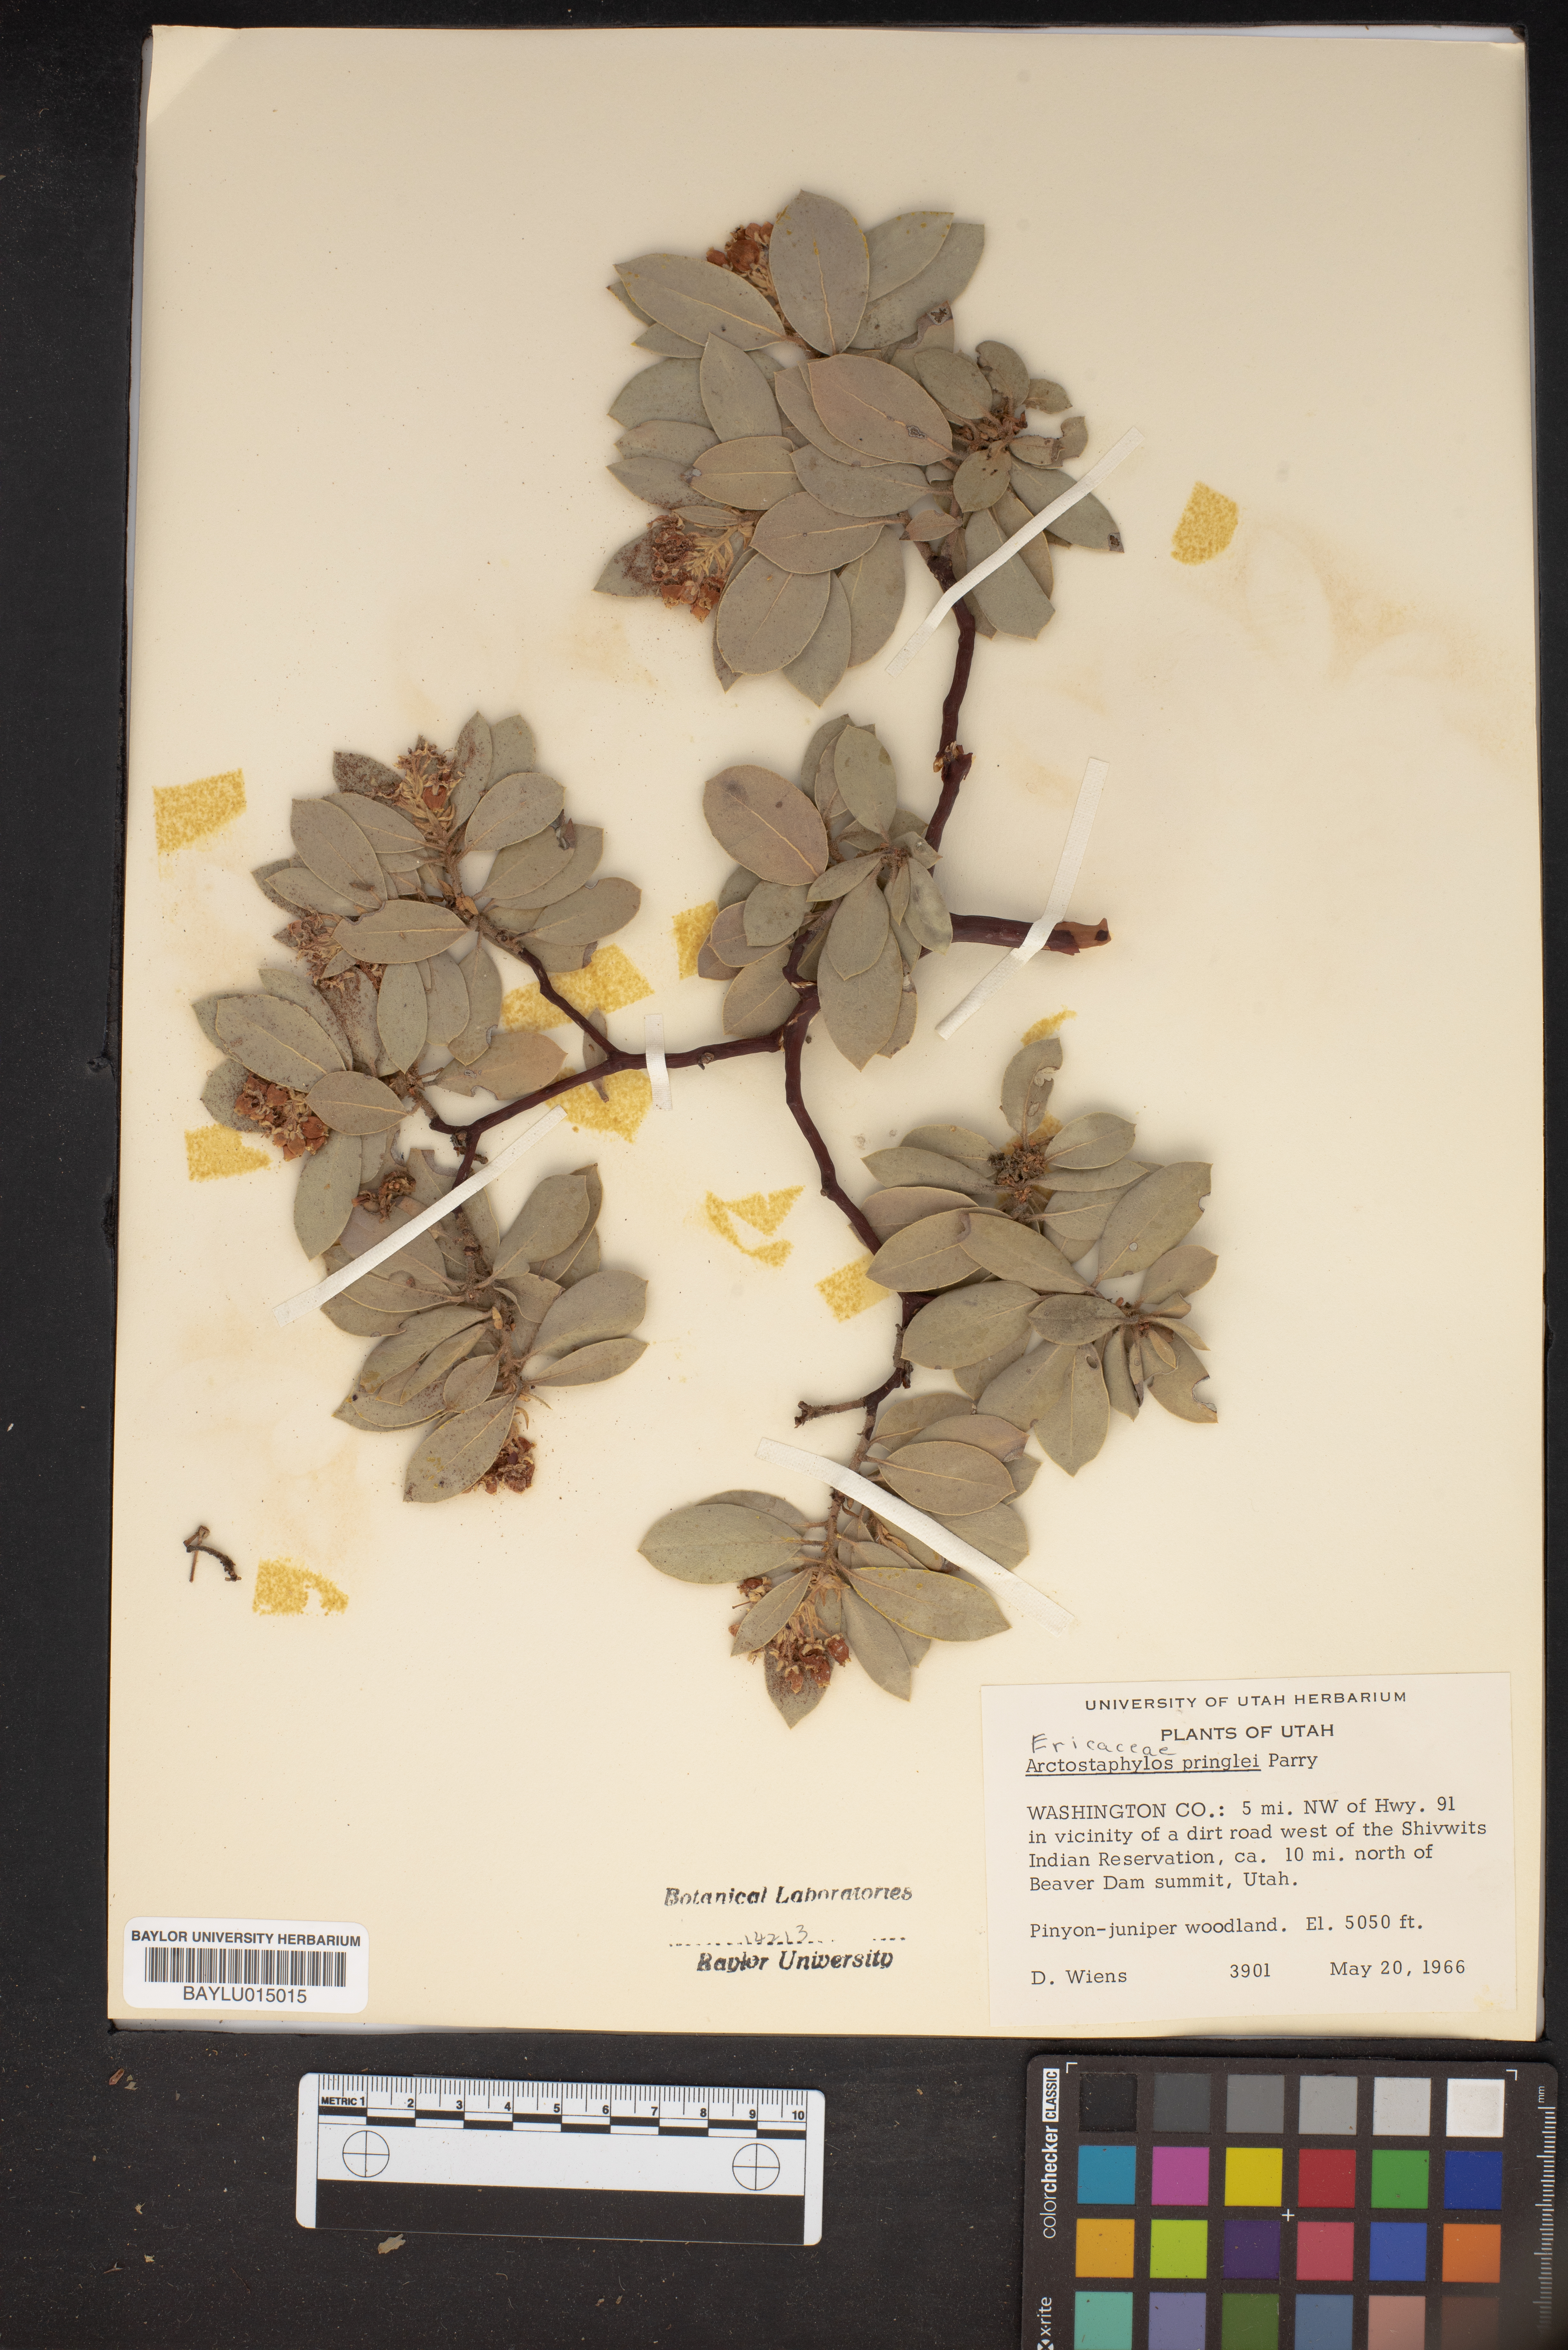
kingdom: Plantae
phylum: Tracheophyta
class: Magnoliopsida
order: Ericales
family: Ericaceae
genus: Arctostaphylos
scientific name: Arctostaphylos pringlei
